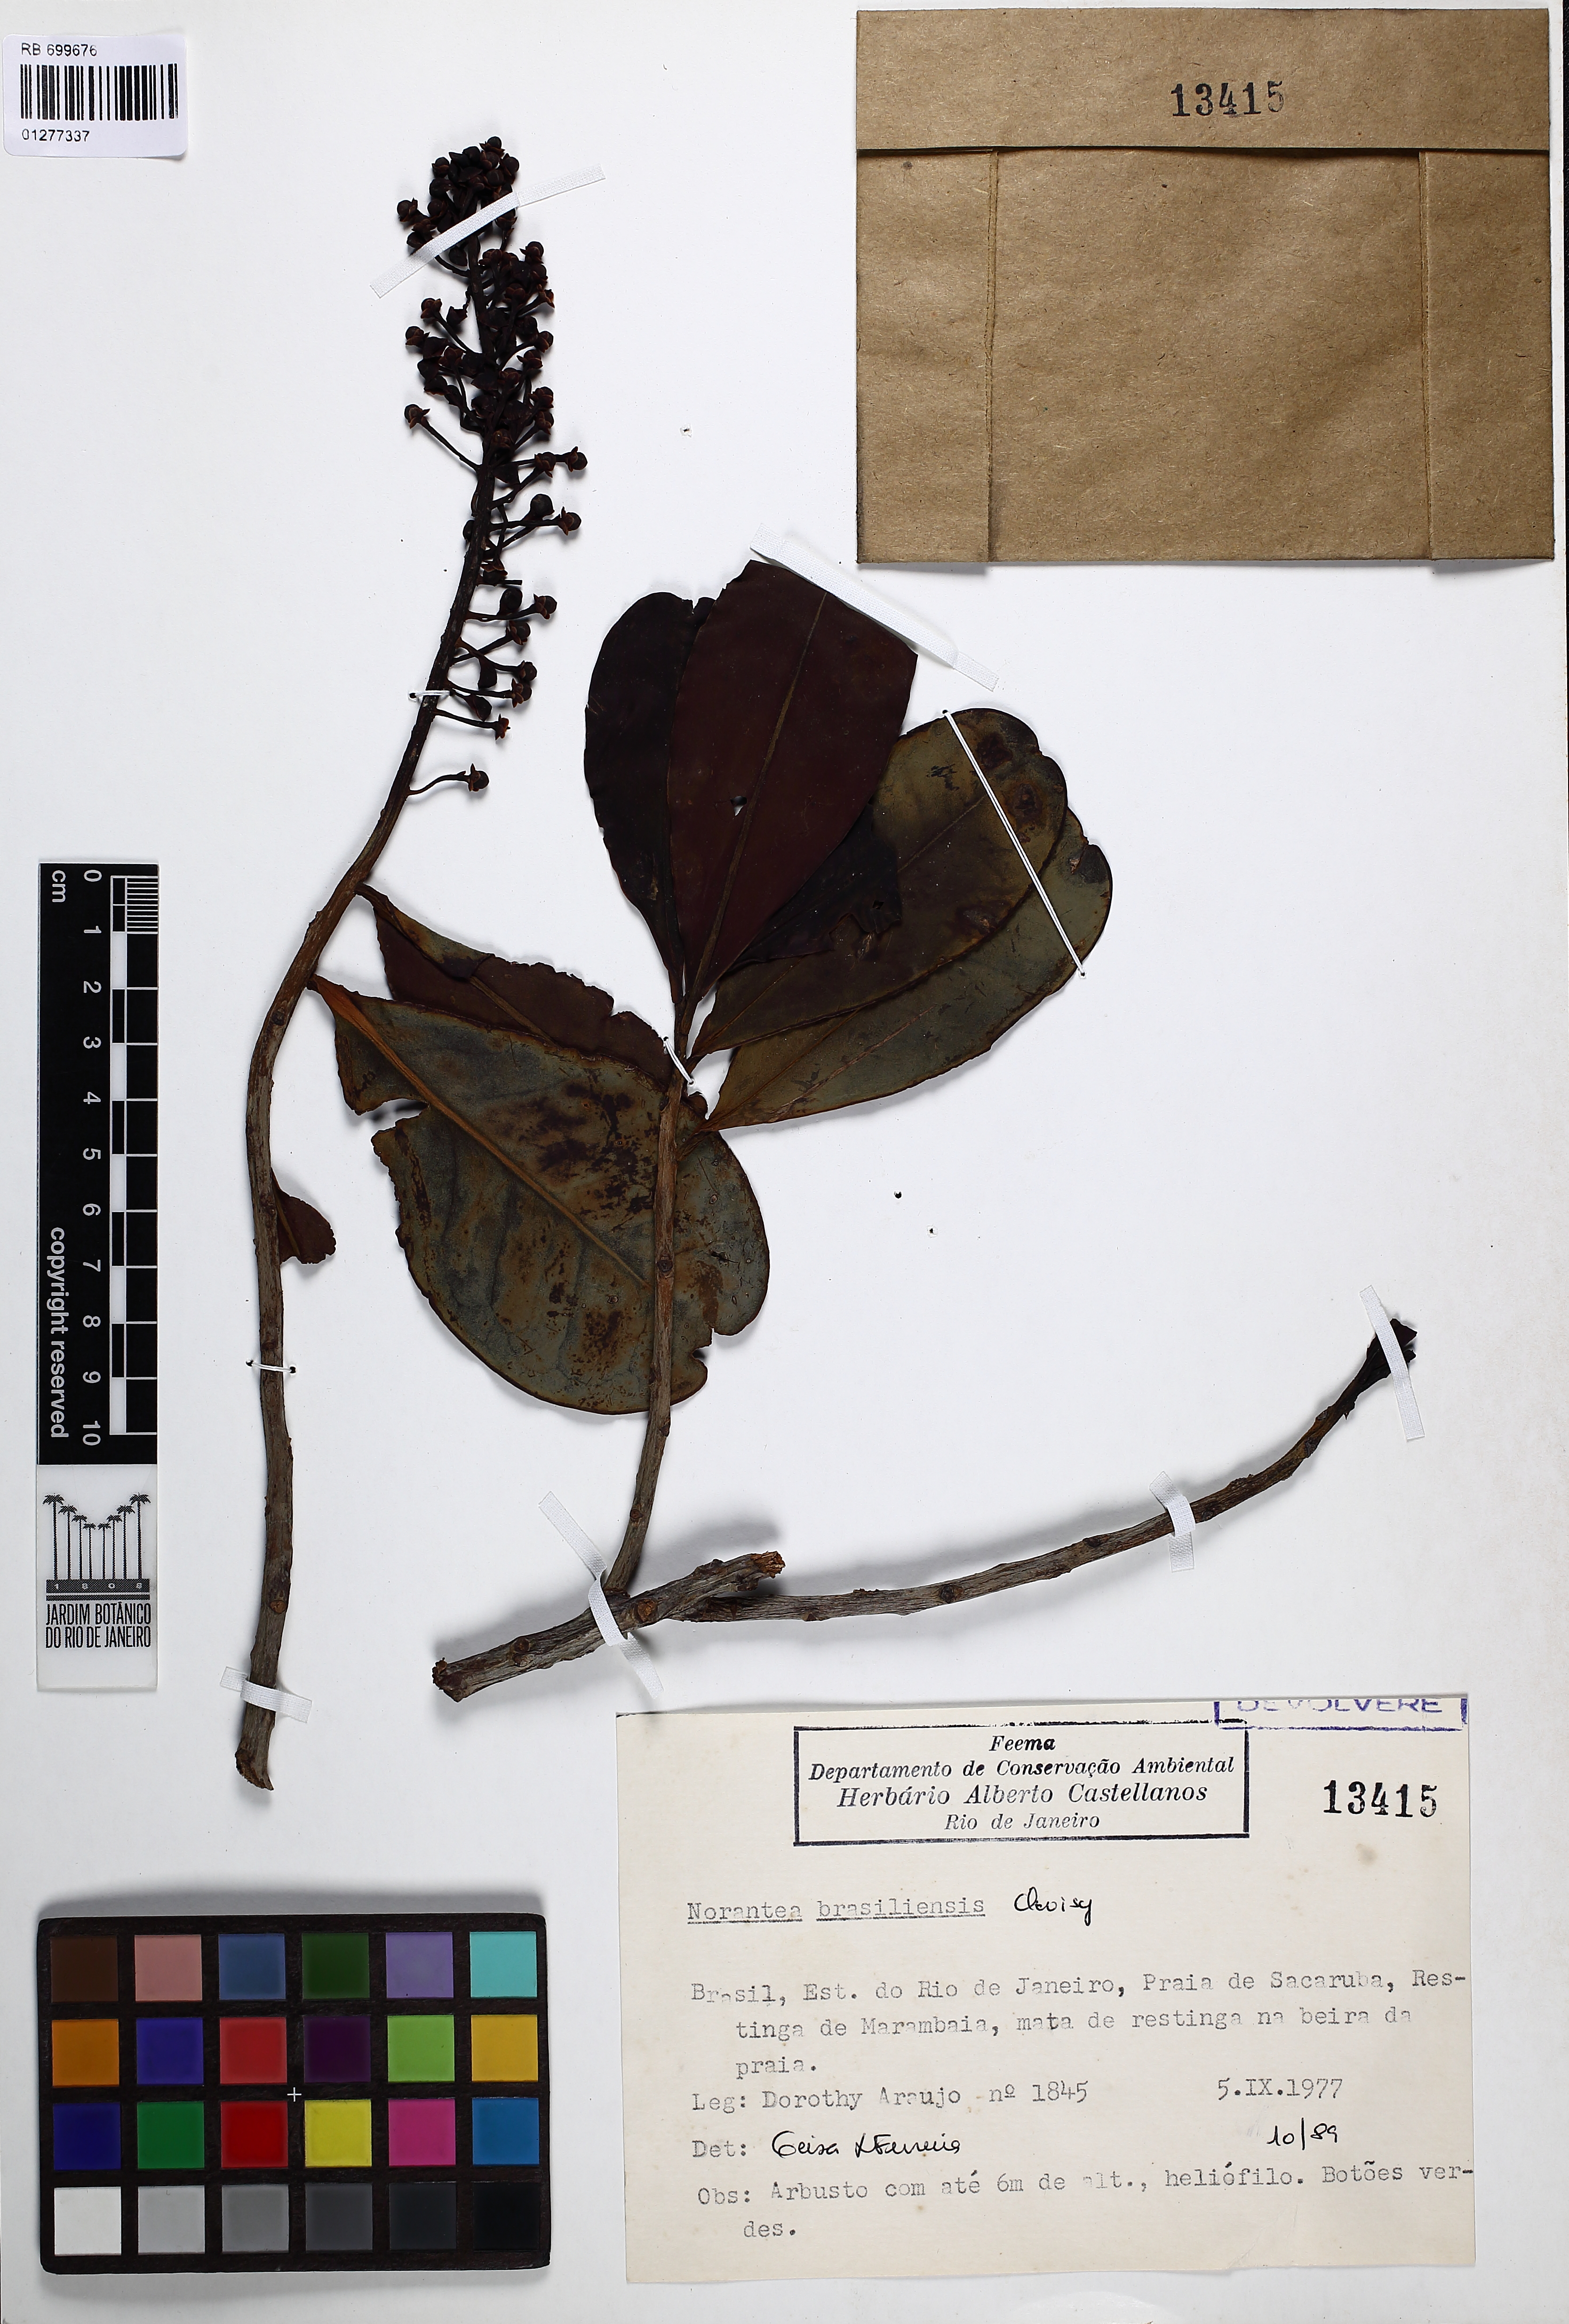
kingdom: Plantae
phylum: Tracheophyta
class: Magnoliopsida
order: Ericales
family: Marcgraviaceae
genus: Schwartzia
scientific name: Schwartzia brasiliensis
